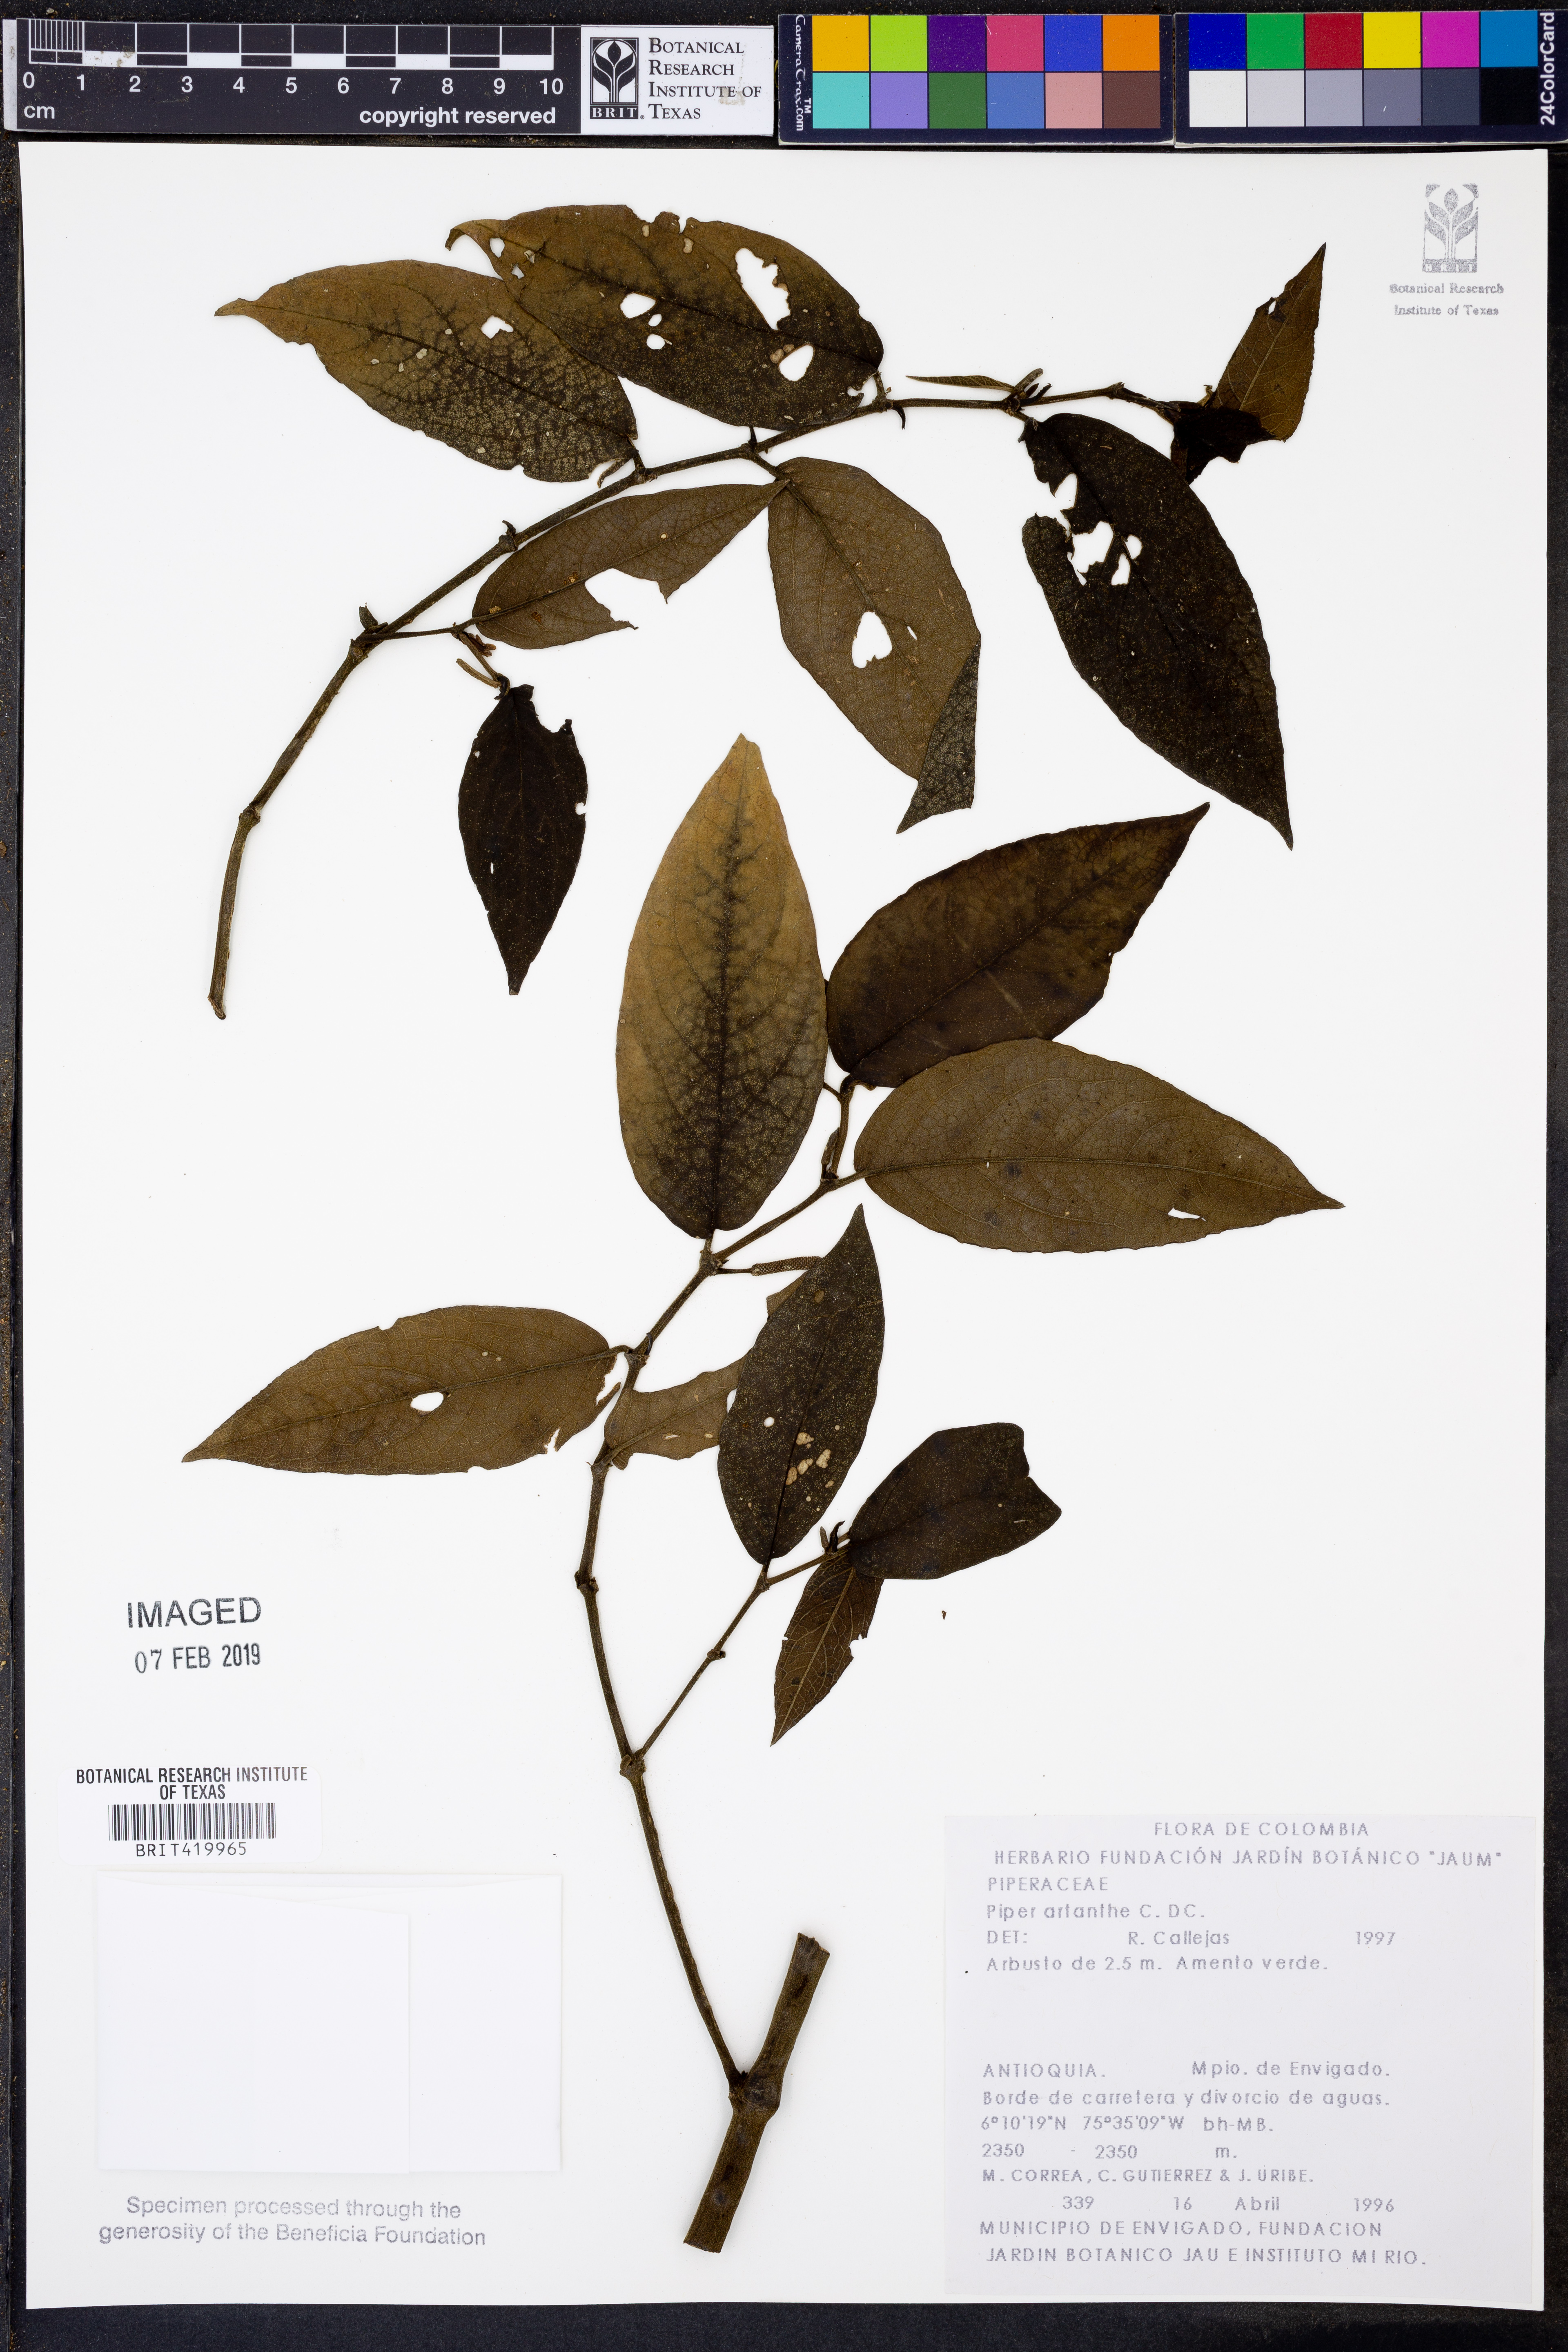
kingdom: Plantae
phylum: Tracheophyta
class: Magnoliopsida
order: Piperales
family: Piperaceae
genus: Piper
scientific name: Piper artanthe
